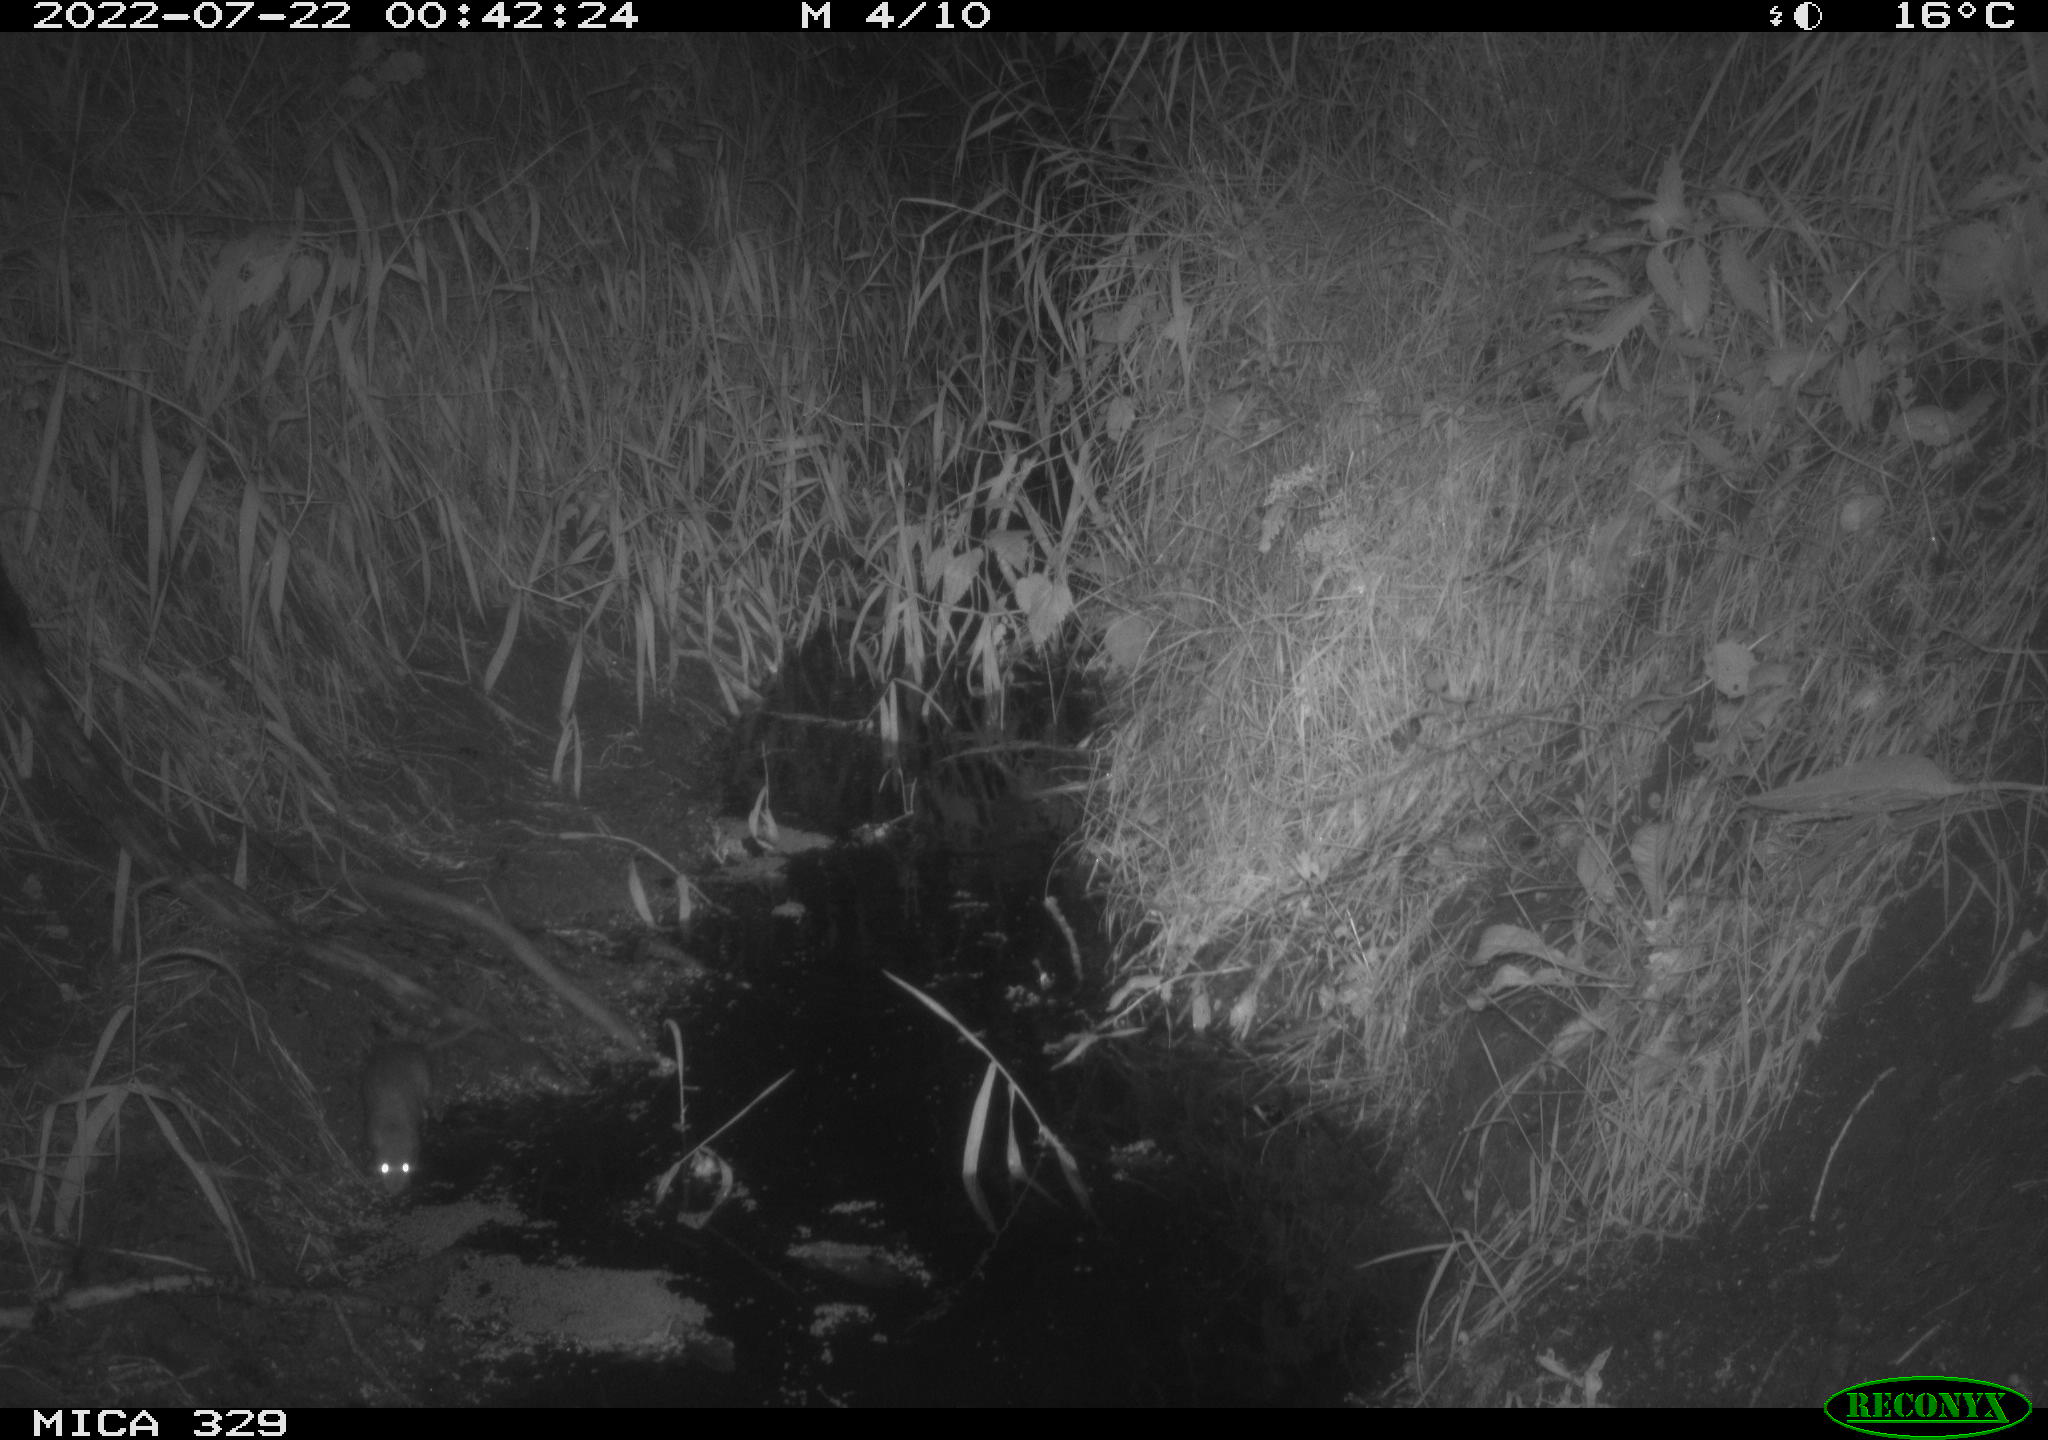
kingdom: Animalia
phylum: Chordata
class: Mammalia
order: Rodentia
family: Muridae
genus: Rattus
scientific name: Rattus norvegicus
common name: Brown rat
